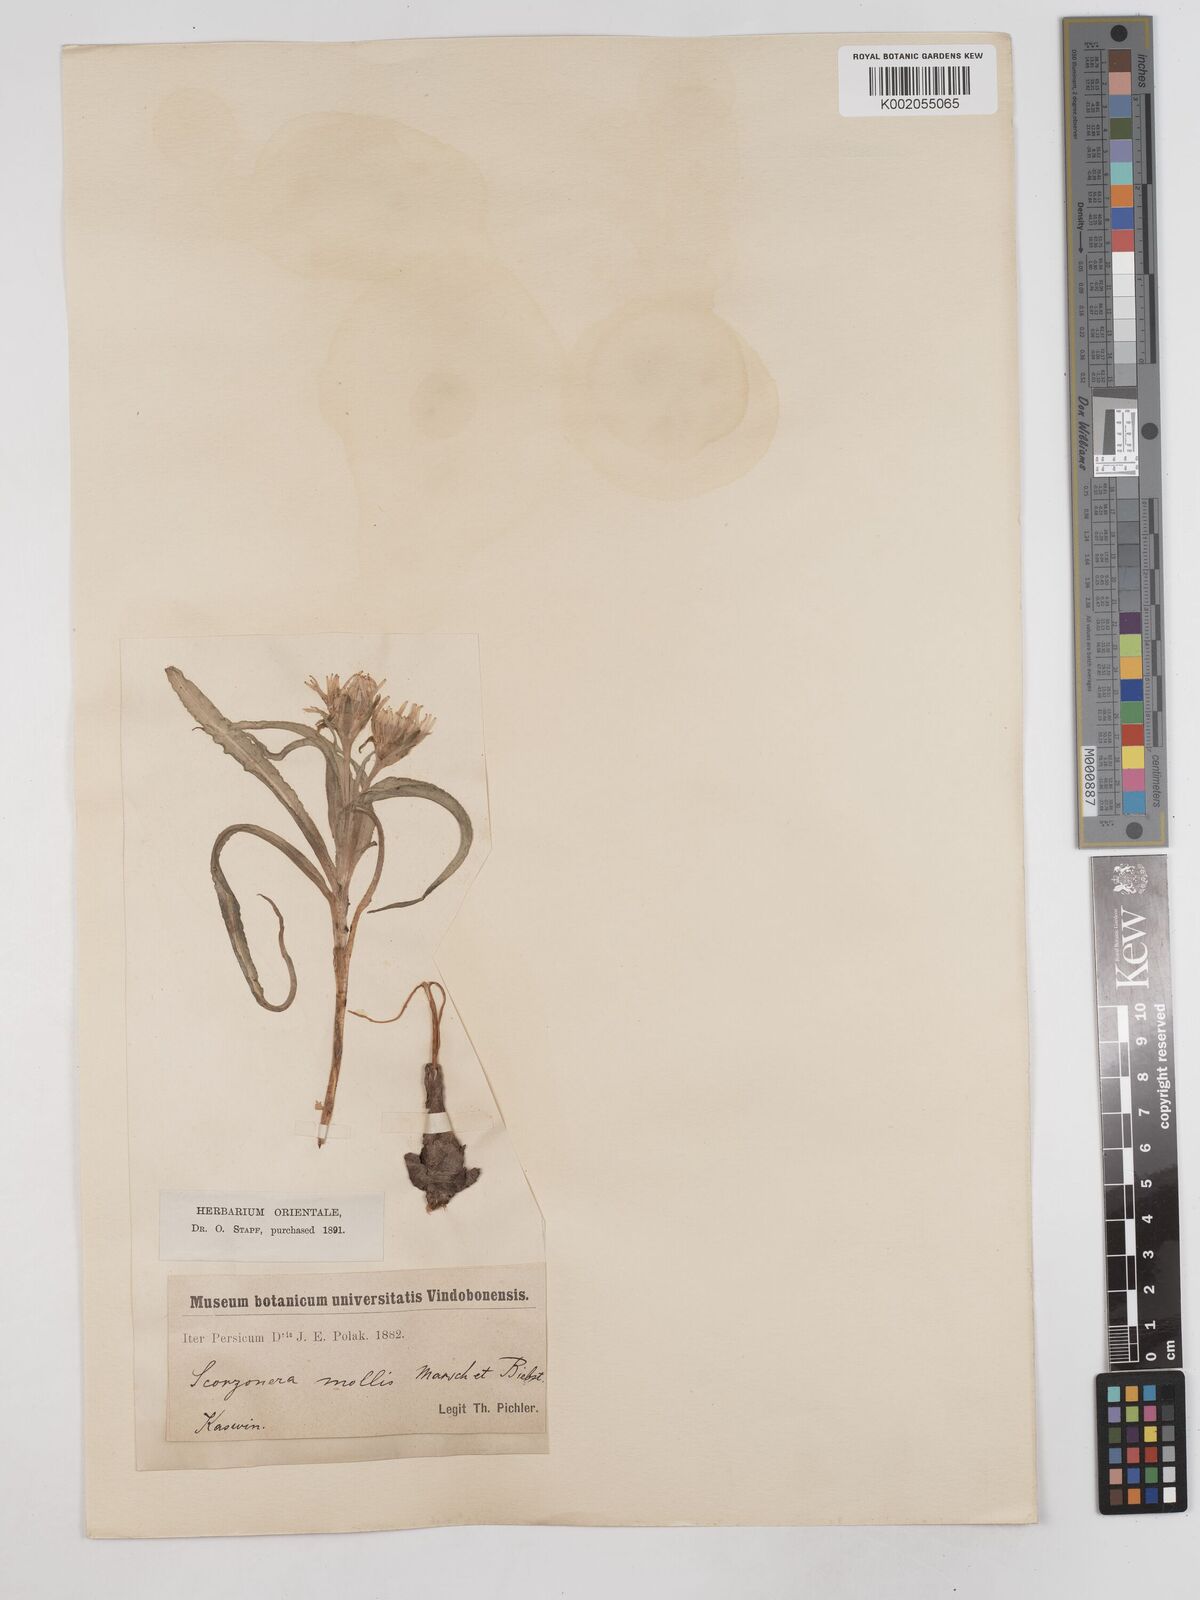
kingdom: Plantae
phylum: Tracheophyta
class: Magnoliopsida
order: Asterales
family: Asteraceae
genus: Candollea
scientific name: Candollea mollis
